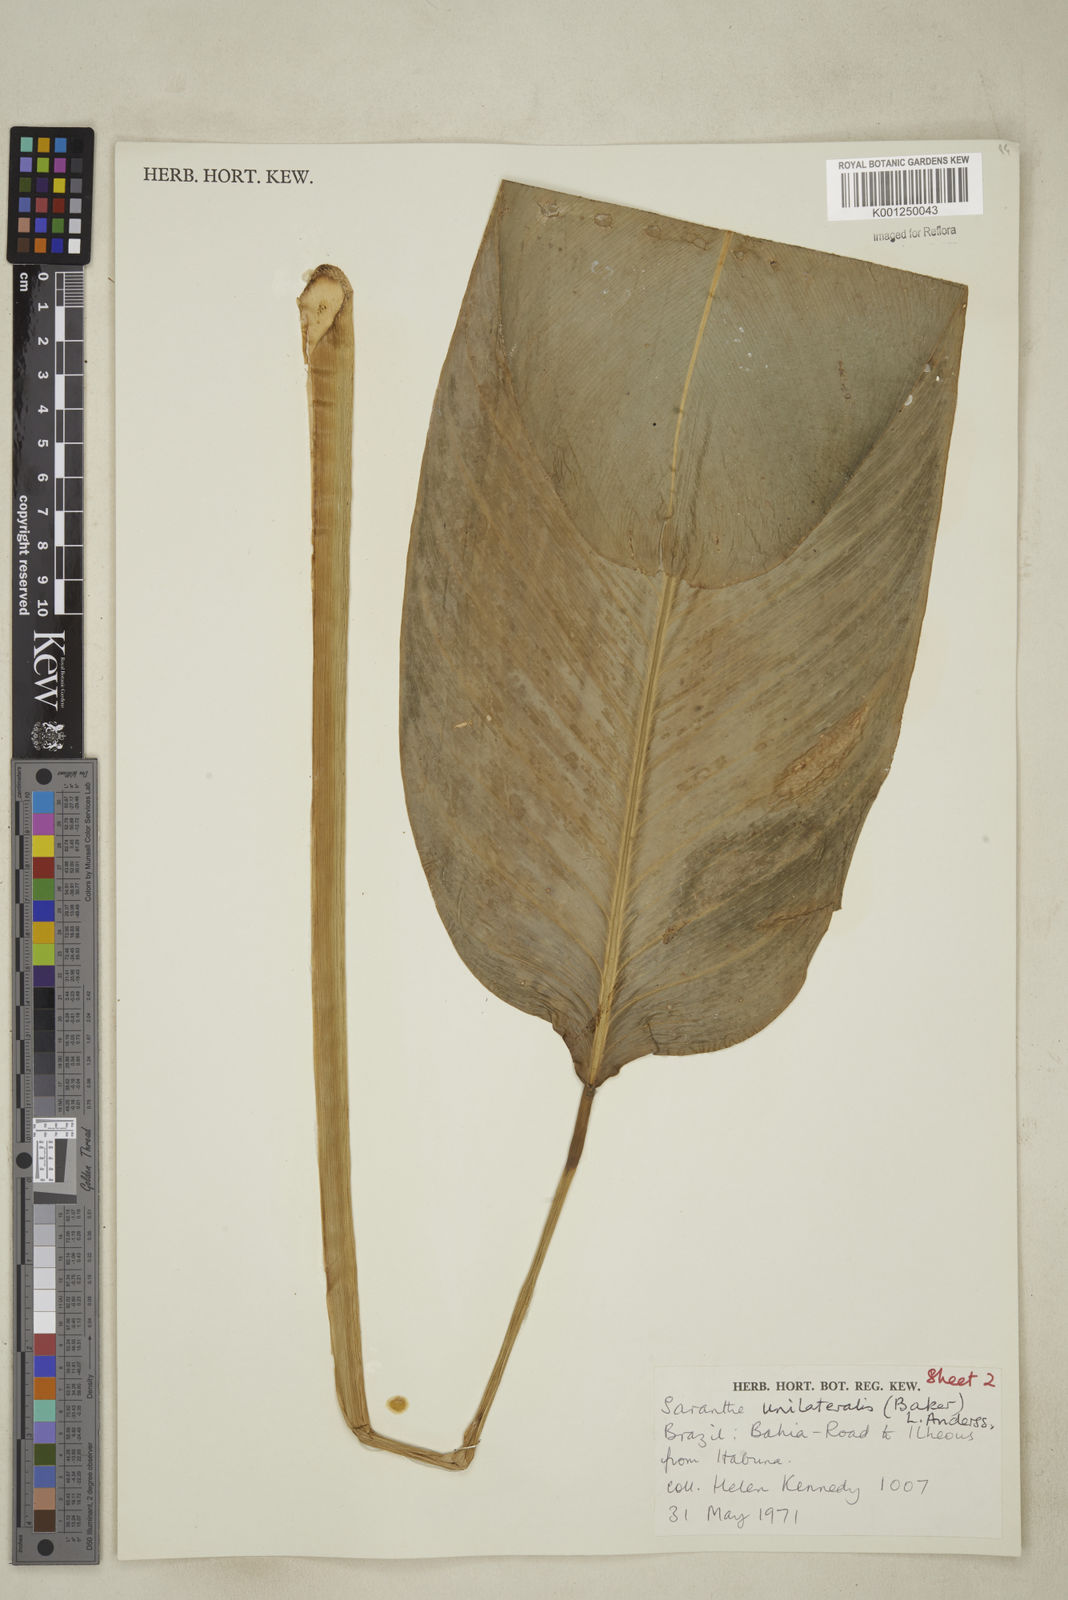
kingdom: Plantae
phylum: Tracheophyta
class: Liliopsida
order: Zingiberales
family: Marantaceae
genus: Saranthe
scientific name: Saranthe madagascariensis
